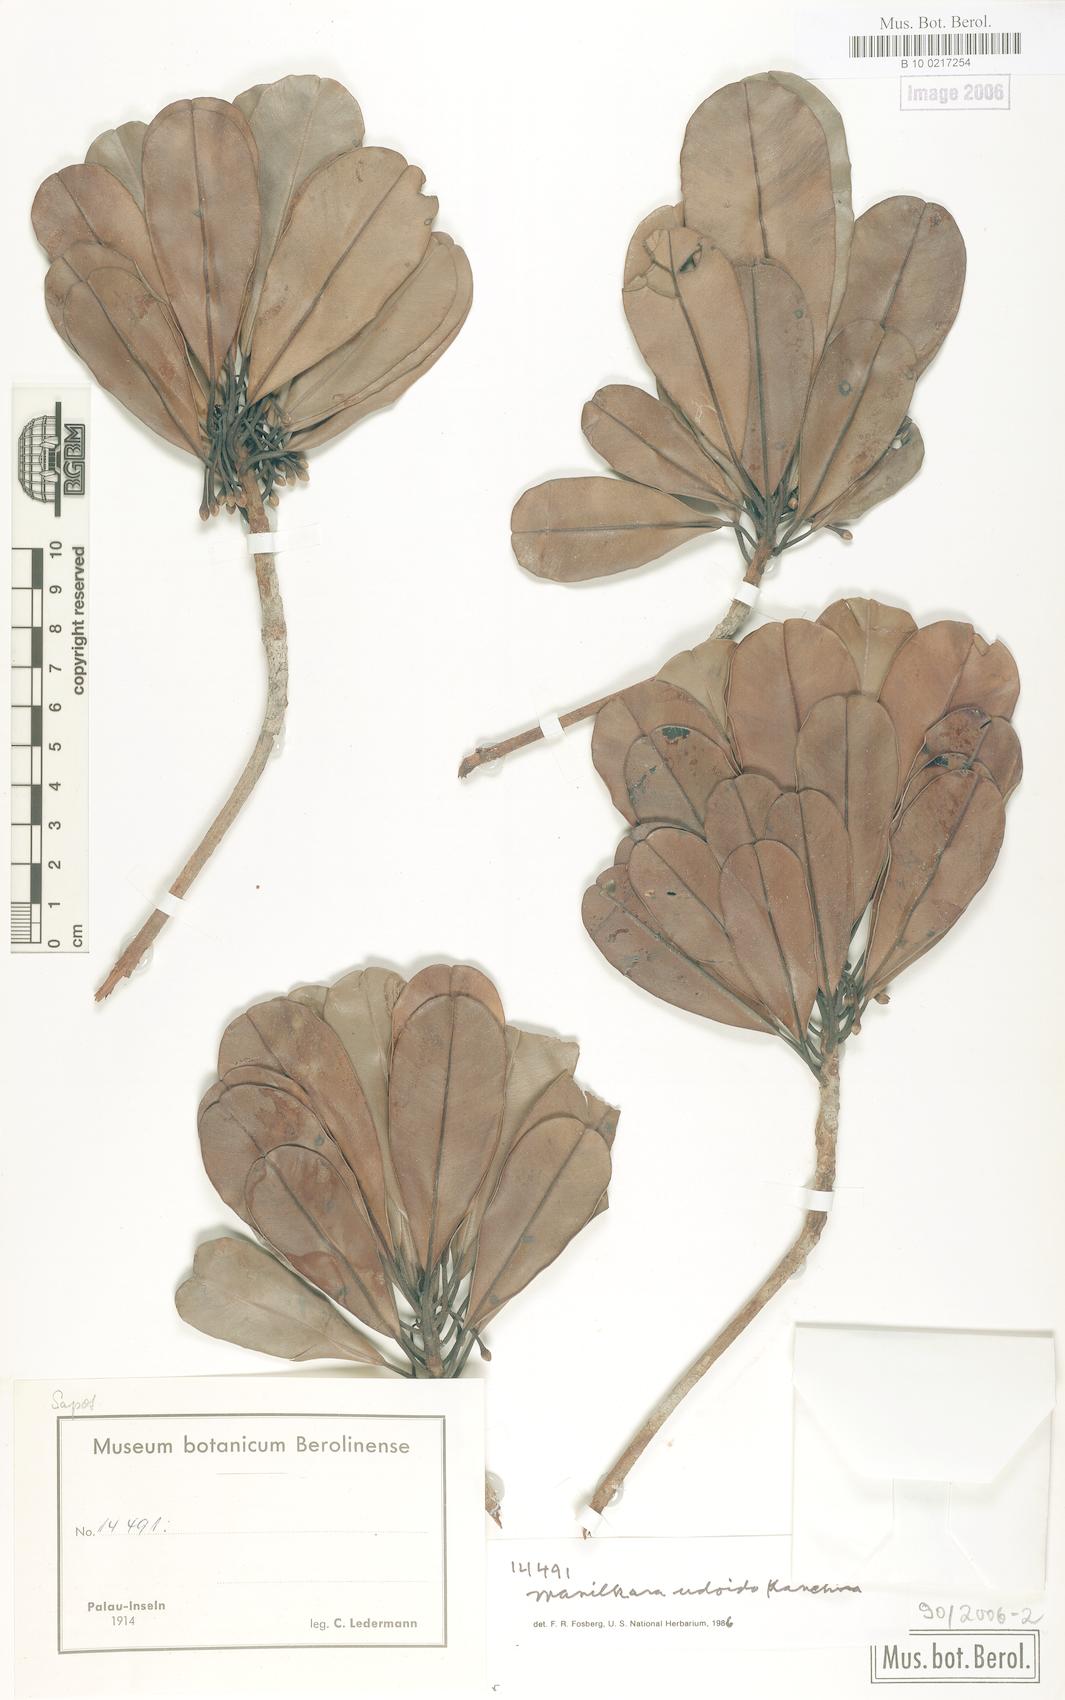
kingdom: Plantae
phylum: Tracheophyta
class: Magnoliopsida
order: Ericales
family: Sapotaceae
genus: Manilkara
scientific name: Manilkara udoido
